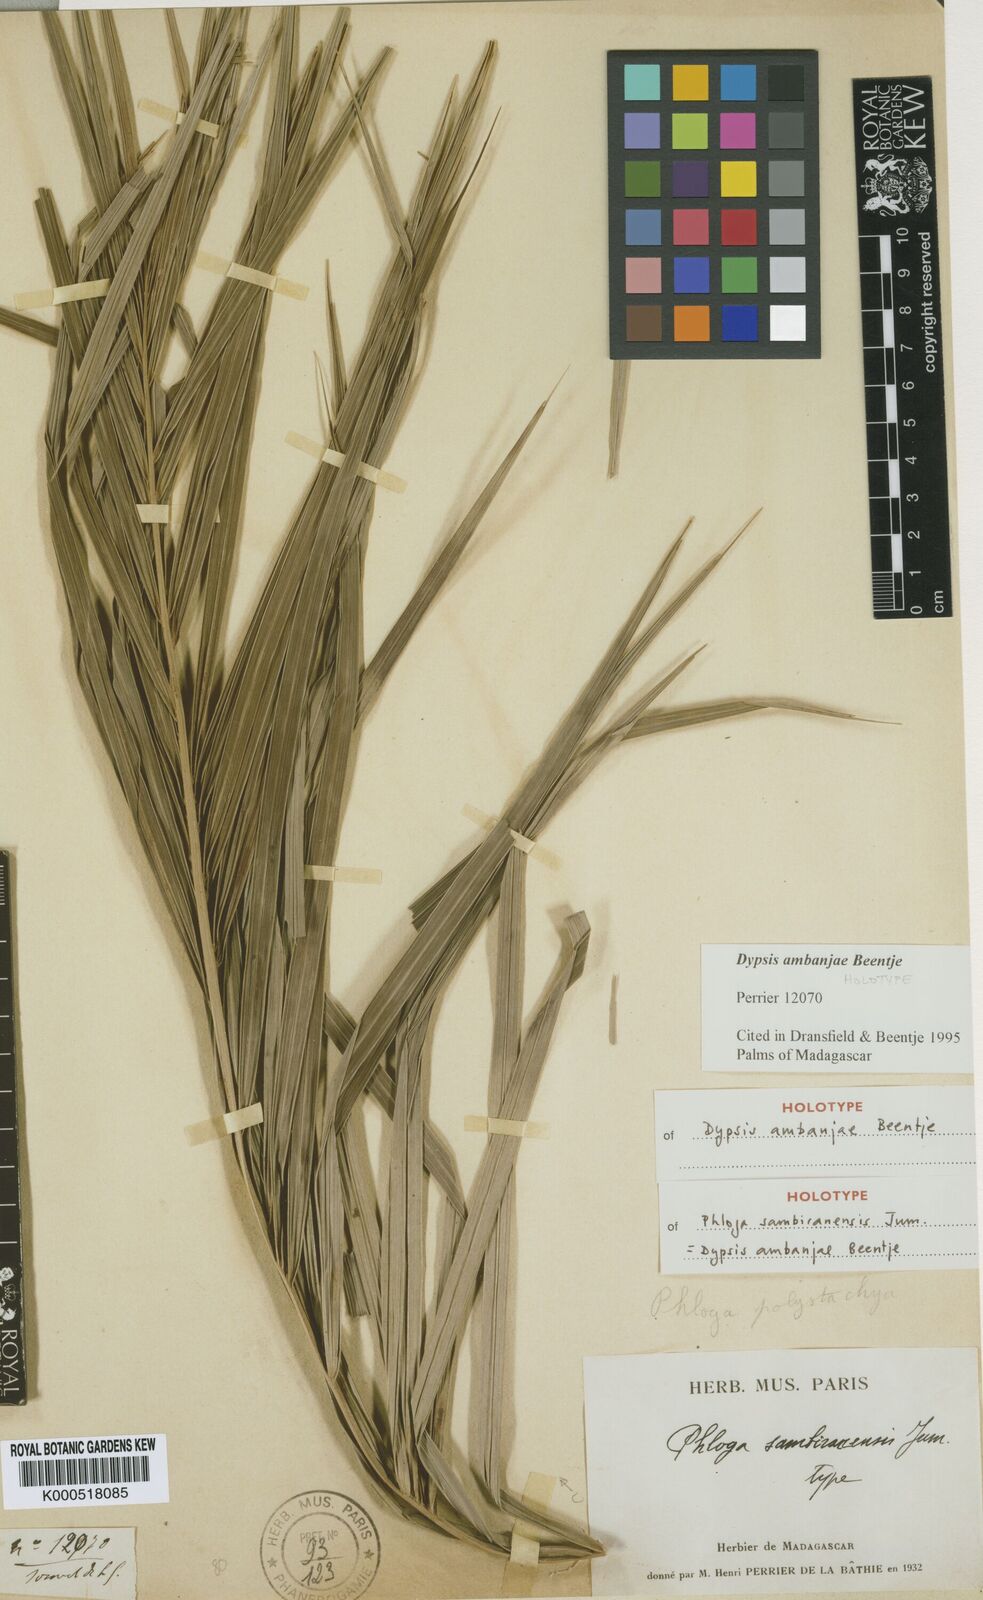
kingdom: Plantae
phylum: Tracheophyta
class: Liliopsida
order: Arecales
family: Arecaceae
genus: Dypsis
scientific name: Dypsis ambanjae
